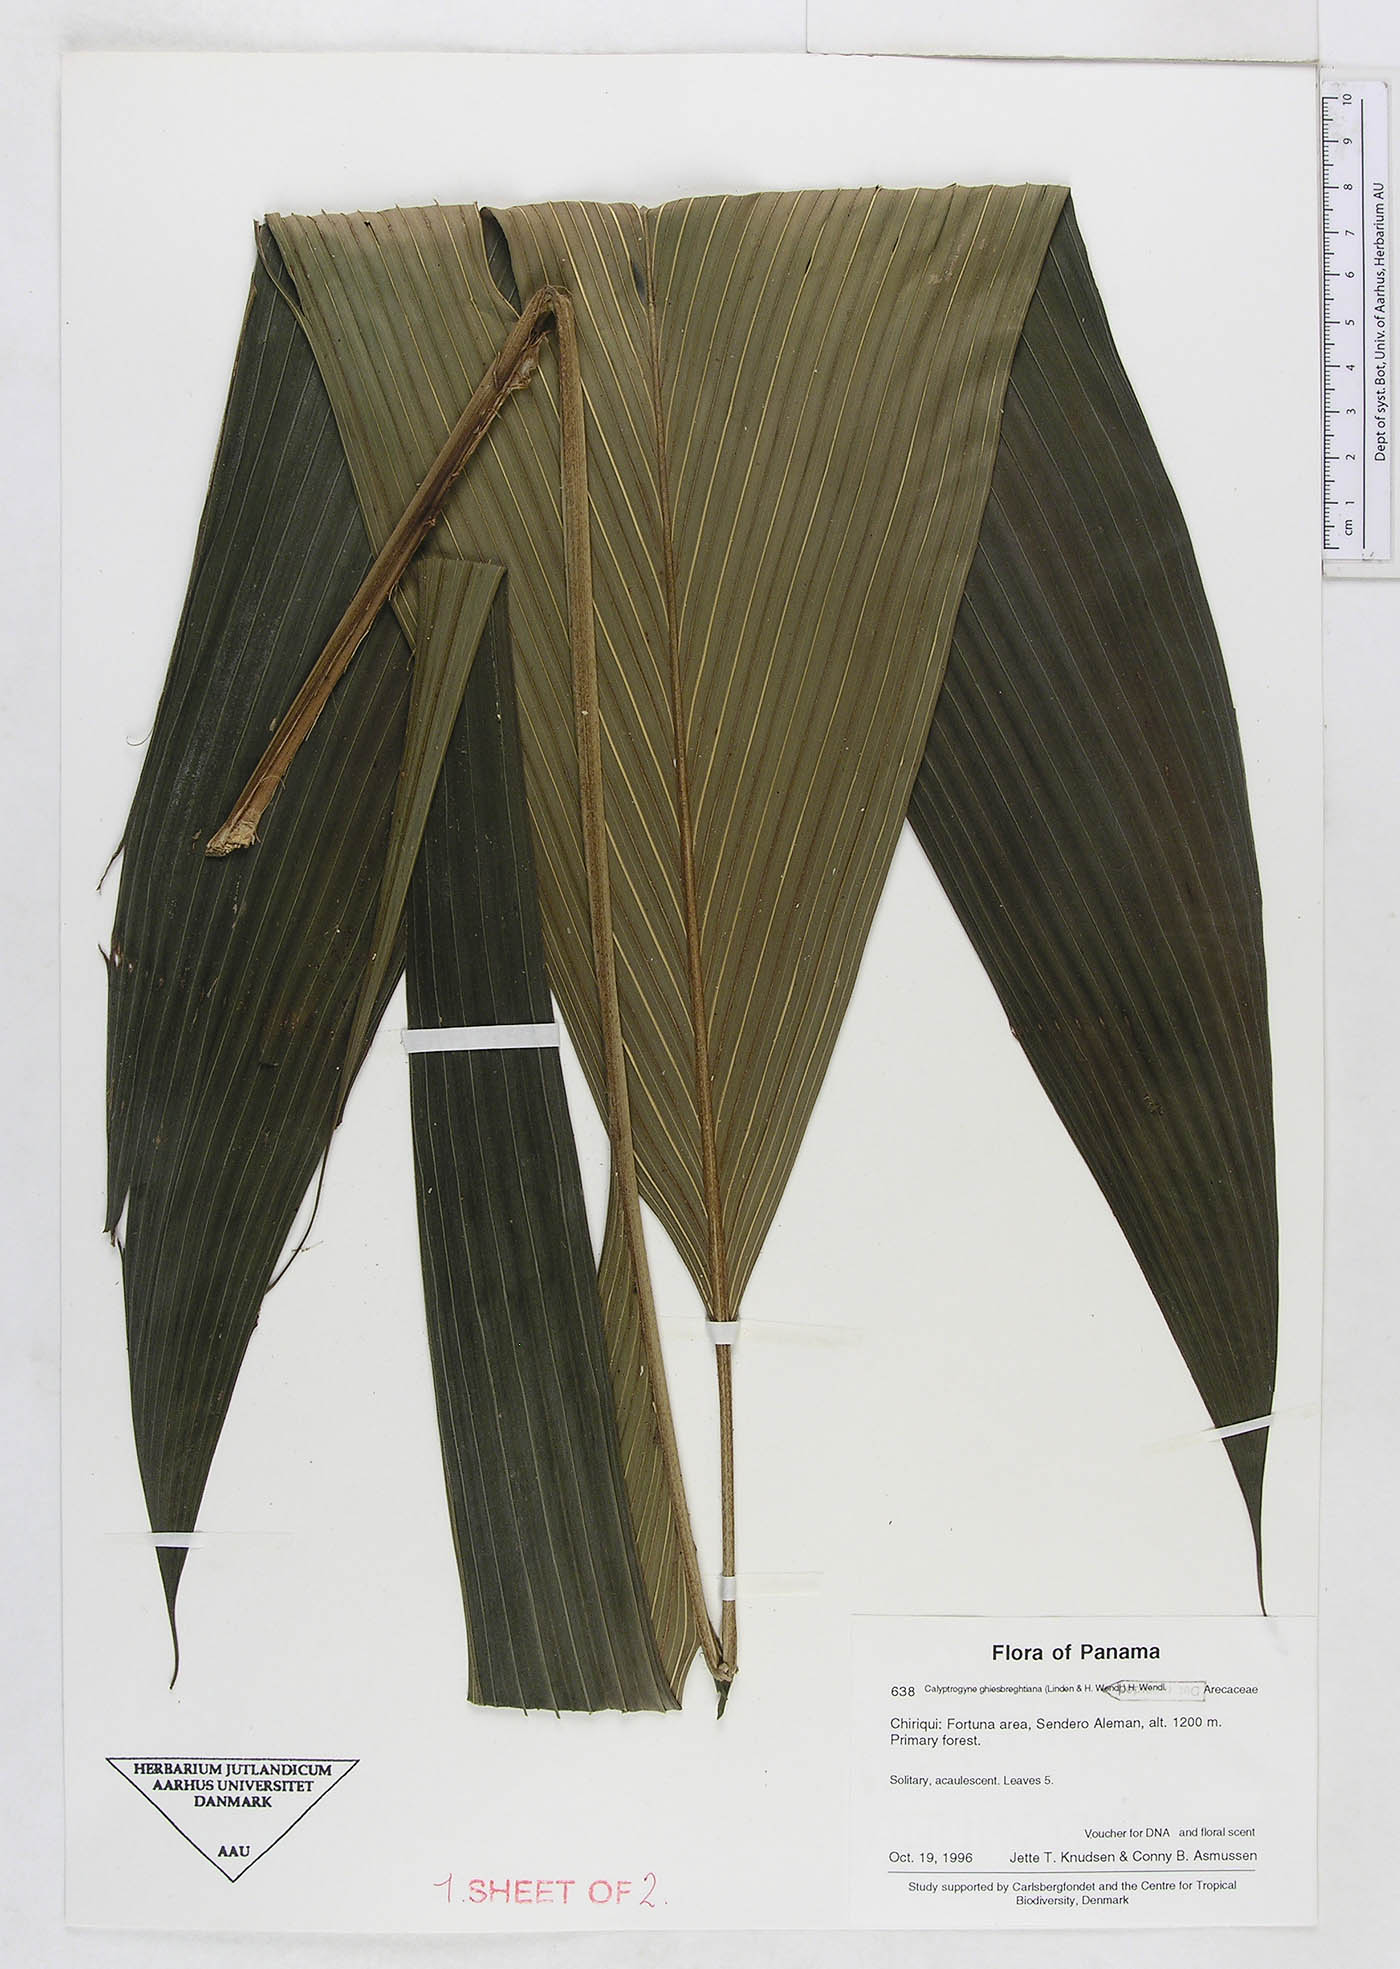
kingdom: Plantae
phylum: Tracheophyta
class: Liliopsida
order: Arecales
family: Arecaceae
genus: Calyptrogyne
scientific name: Calyptrogyne ghiesbreghtiana
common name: Coligallo
